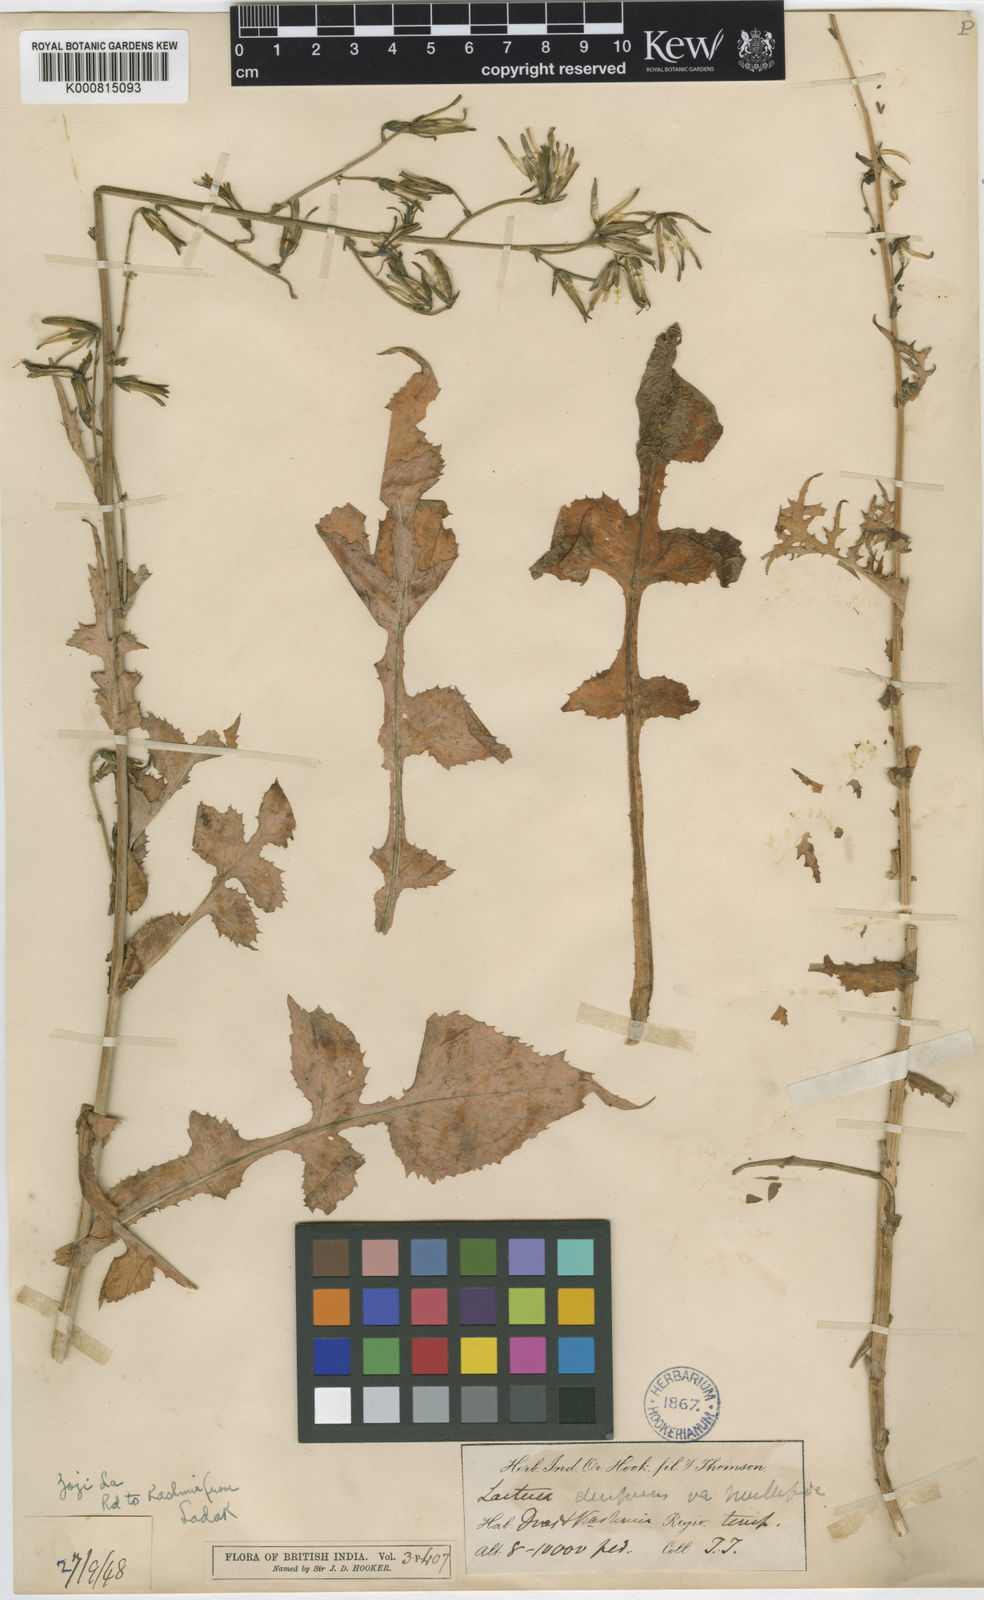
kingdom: Plantae
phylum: Tracheophyta
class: Magnoliopsida
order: Asterales
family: Asteraceae
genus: Melanoseris
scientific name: Melanoseris decipiens
